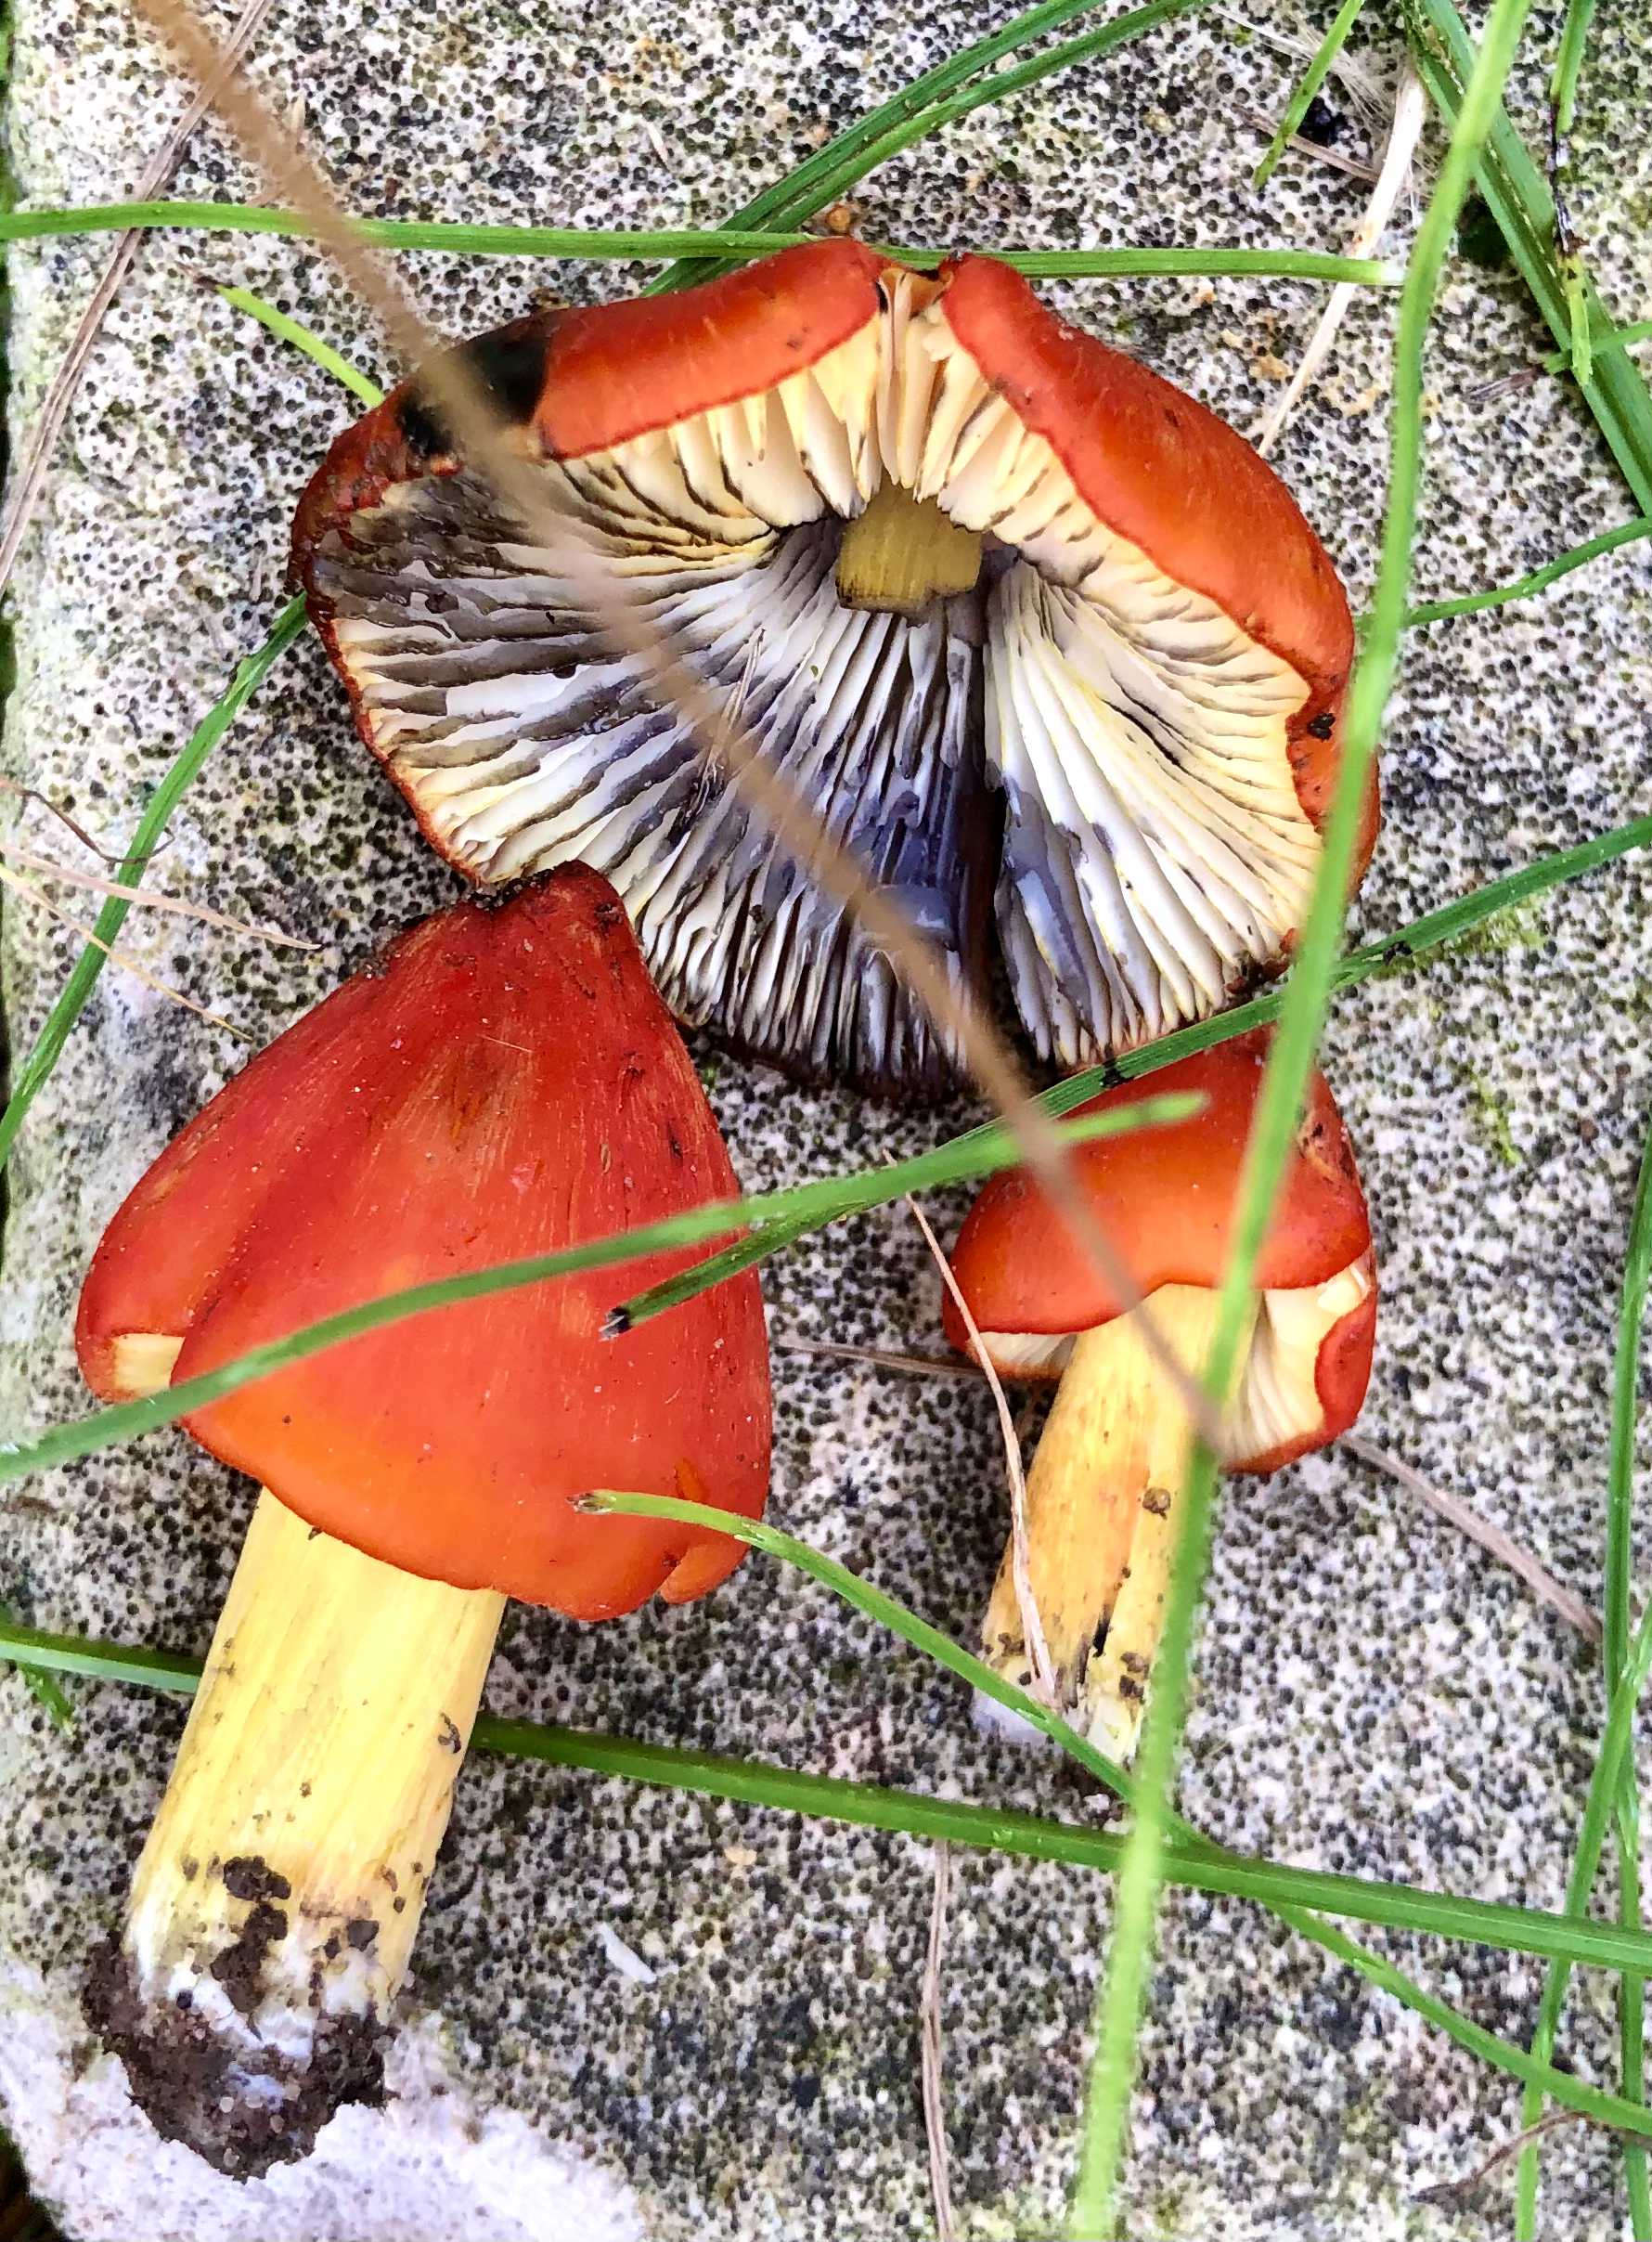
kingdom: Fungi
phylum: Basidiomycota
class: Agaricomycetes
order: Agaricales
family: Hygrophoraceae
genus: Hygrocybe
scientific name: Hygrocybe conica
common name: kegle-vokshat
